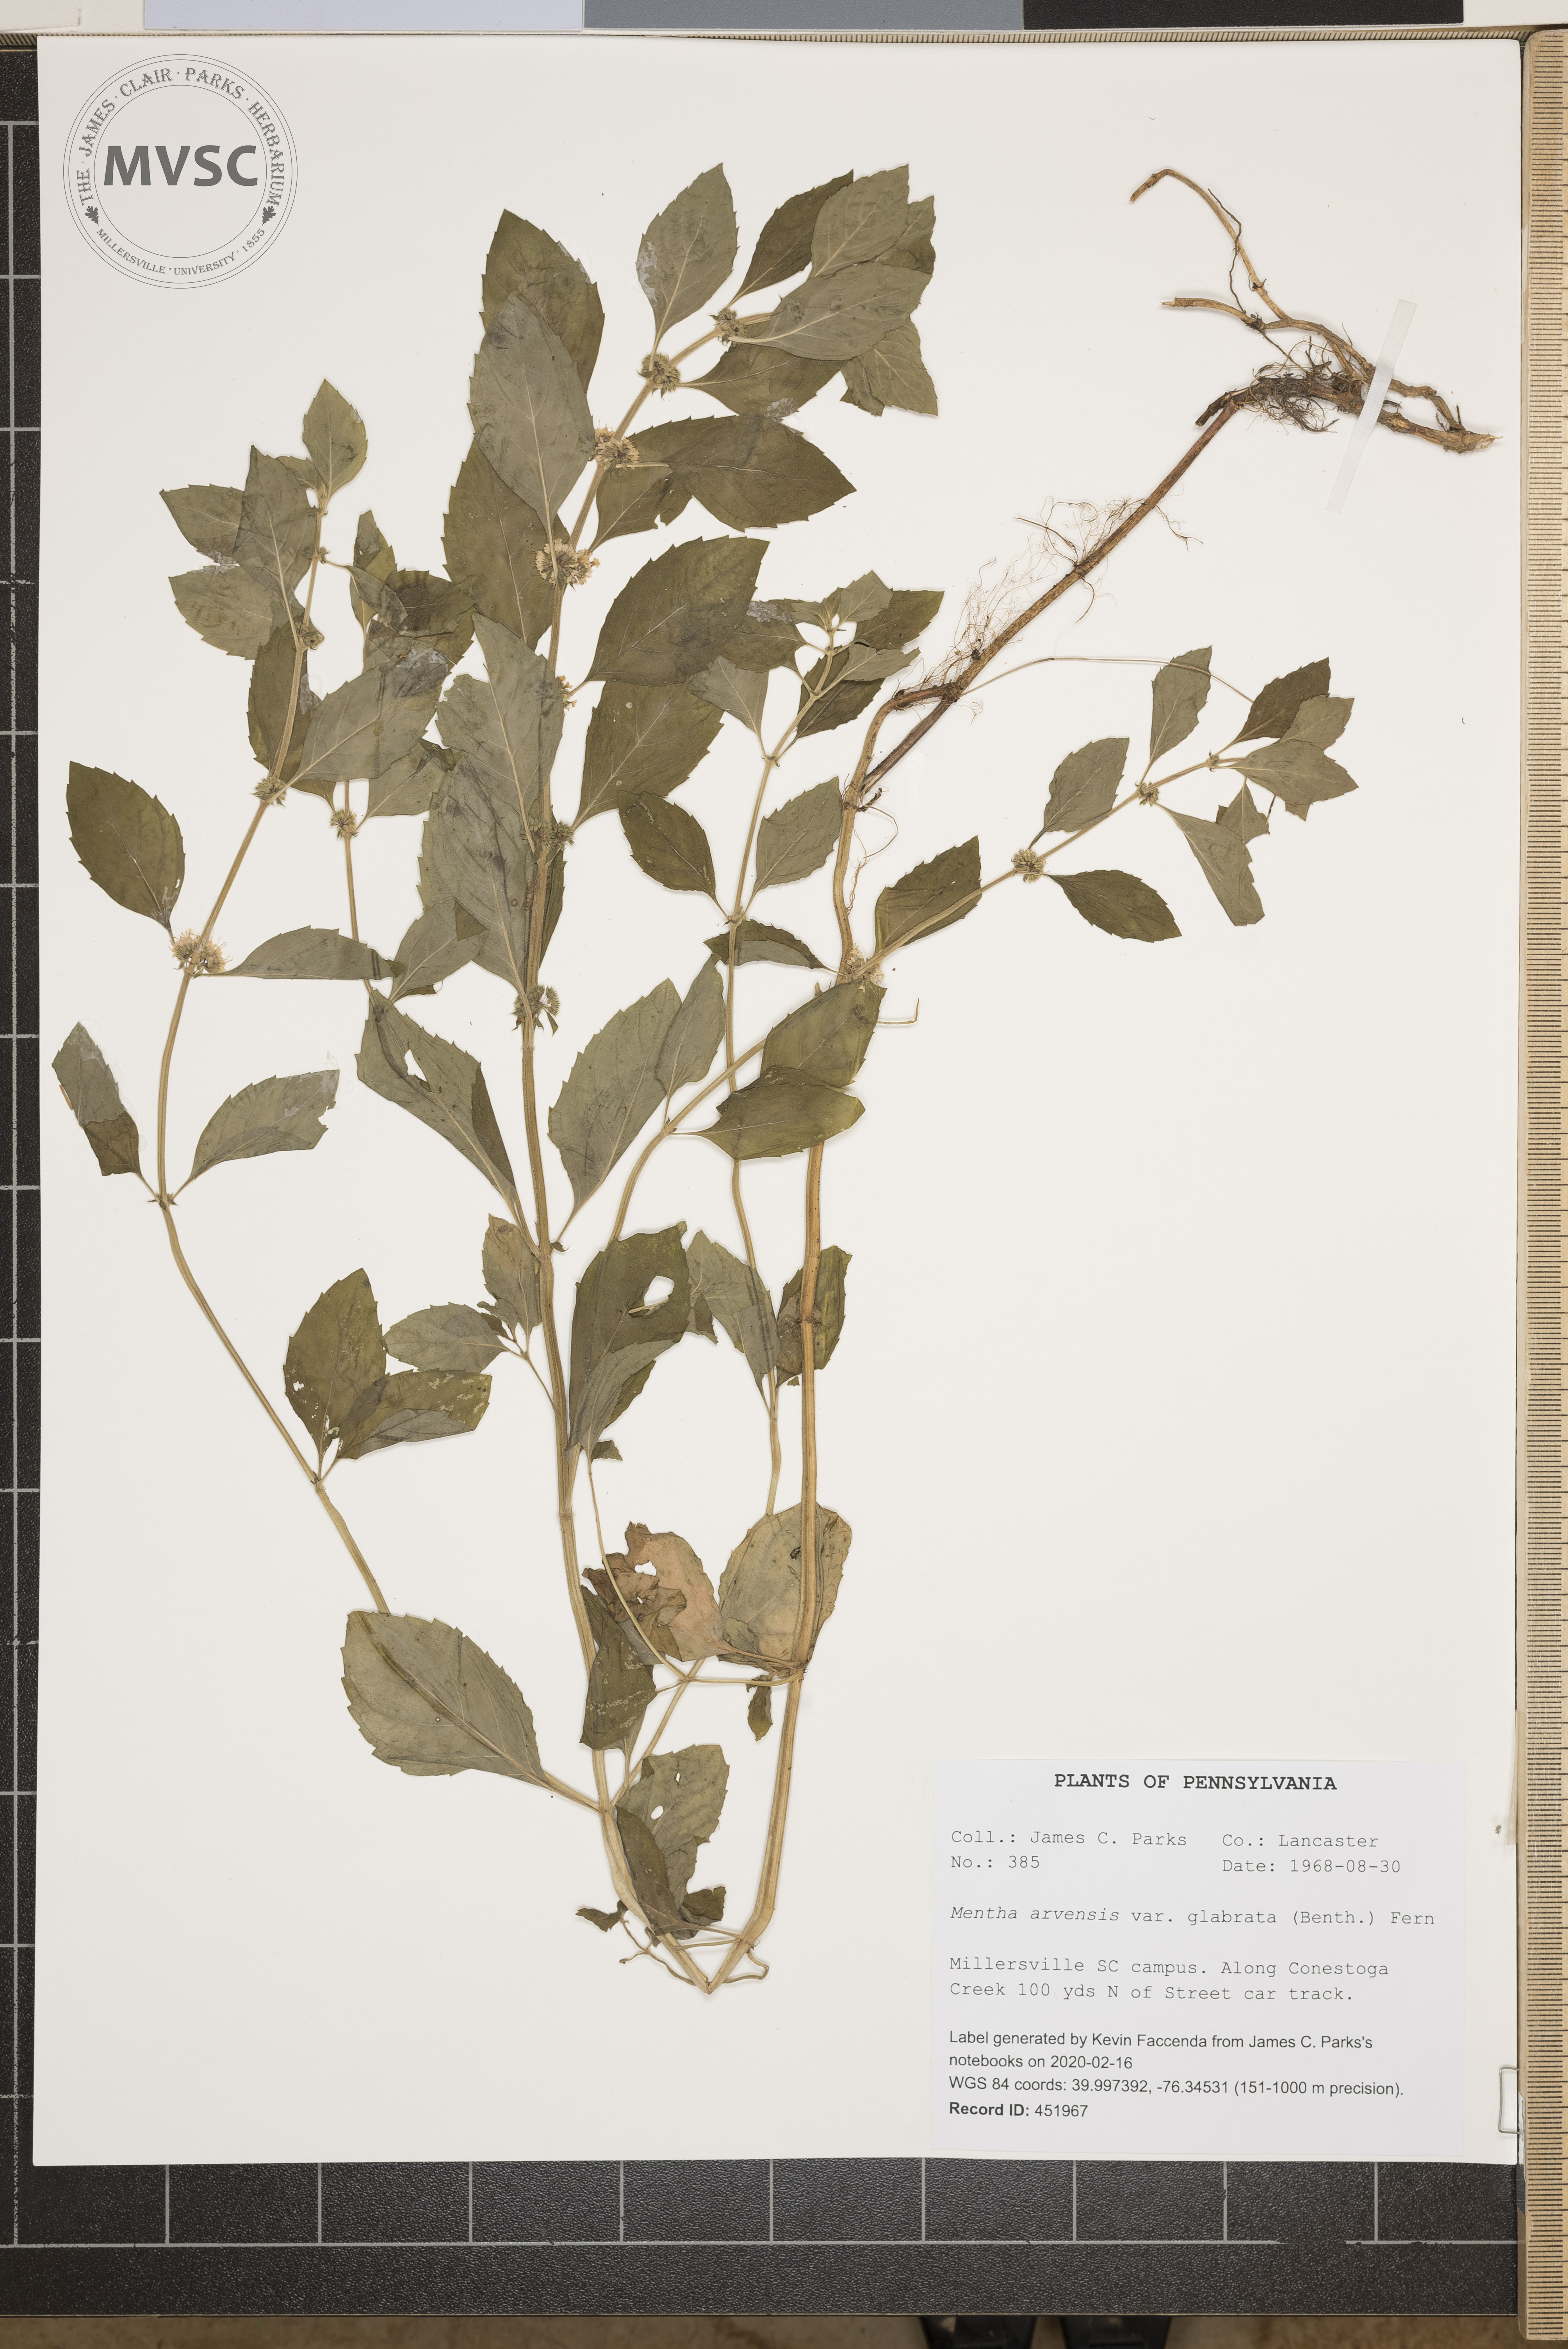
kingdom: Plantae
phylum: Tracheophyta
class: Magnoliopsida
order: Lamiales
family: Lamiaceae
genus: Mentha
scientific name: Mentha arvensis
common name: Corn mint
